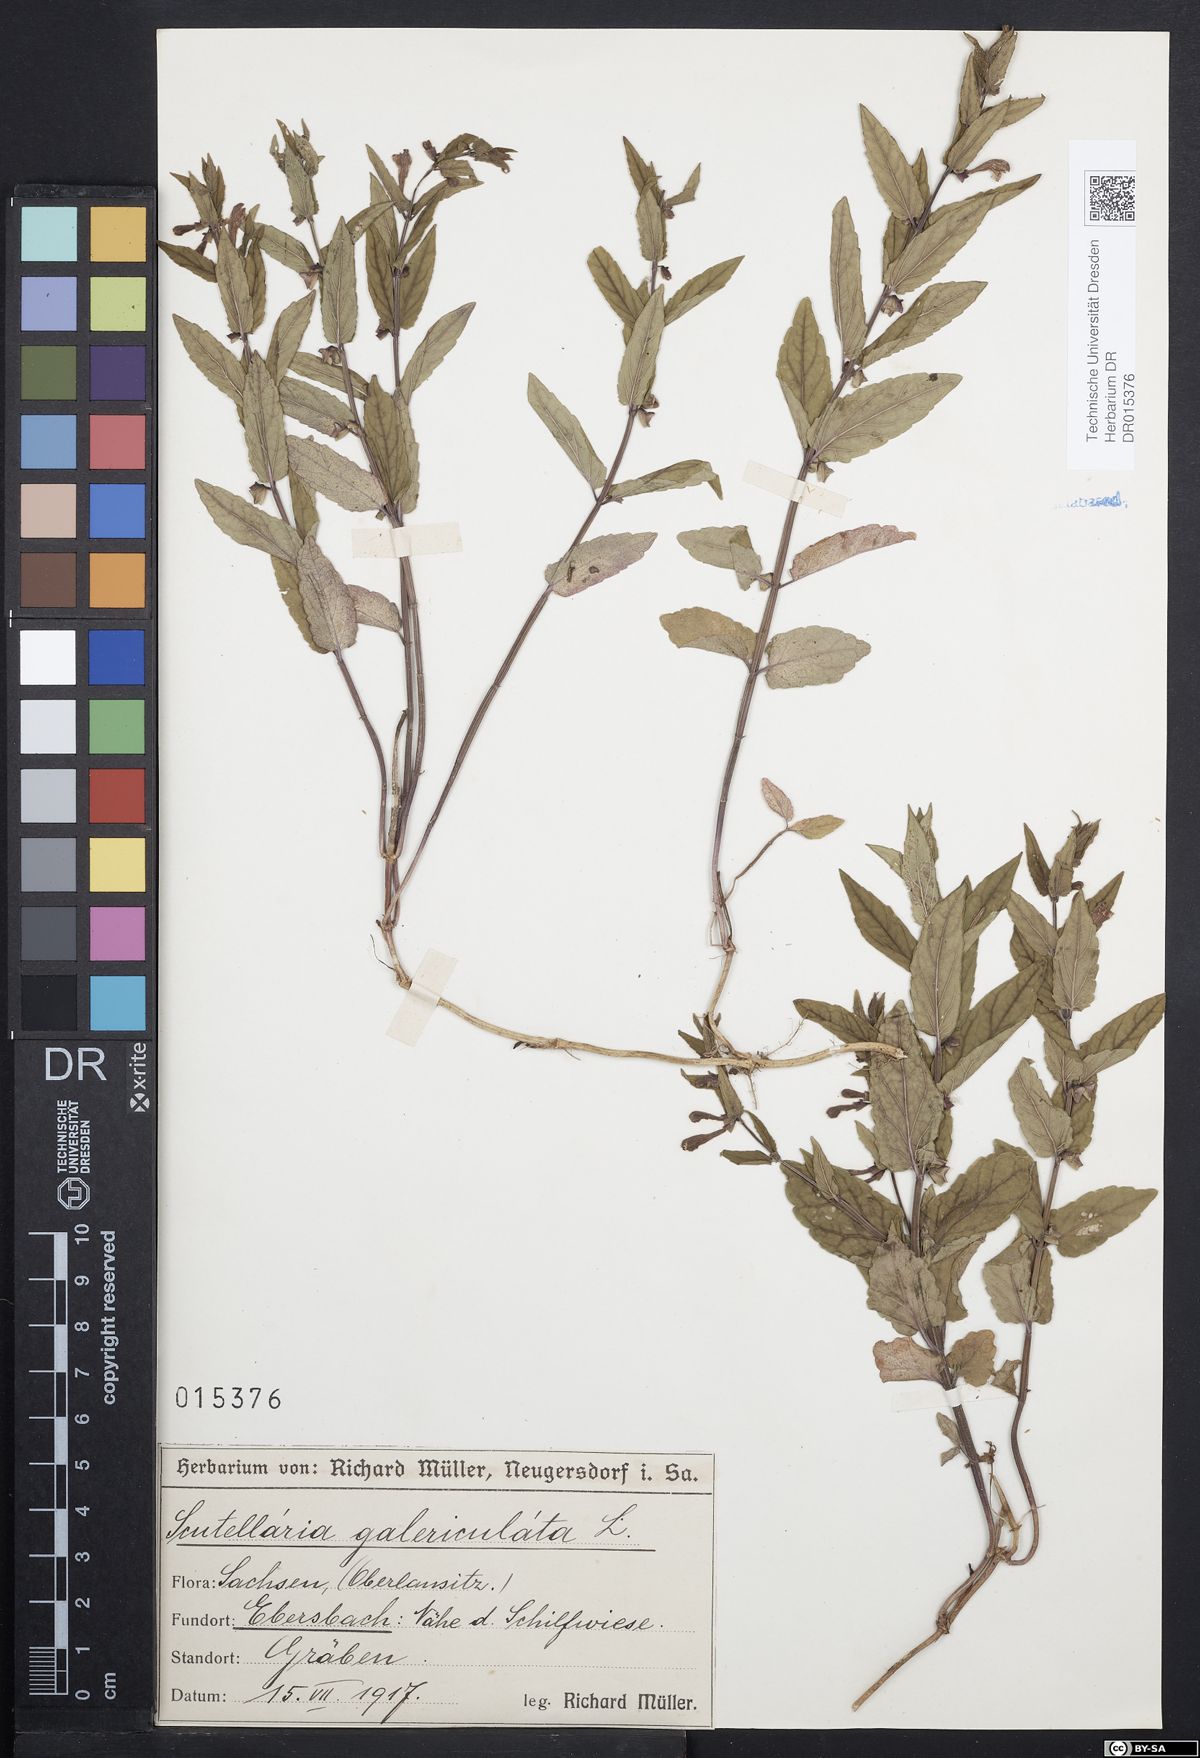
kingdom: Plantae
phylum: Tracheophyta
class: Magnoliopsida
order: Lamiales
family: Lamiaceae
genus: Scutellaria
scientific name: Scutellaria galericulata
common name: Skullcap
